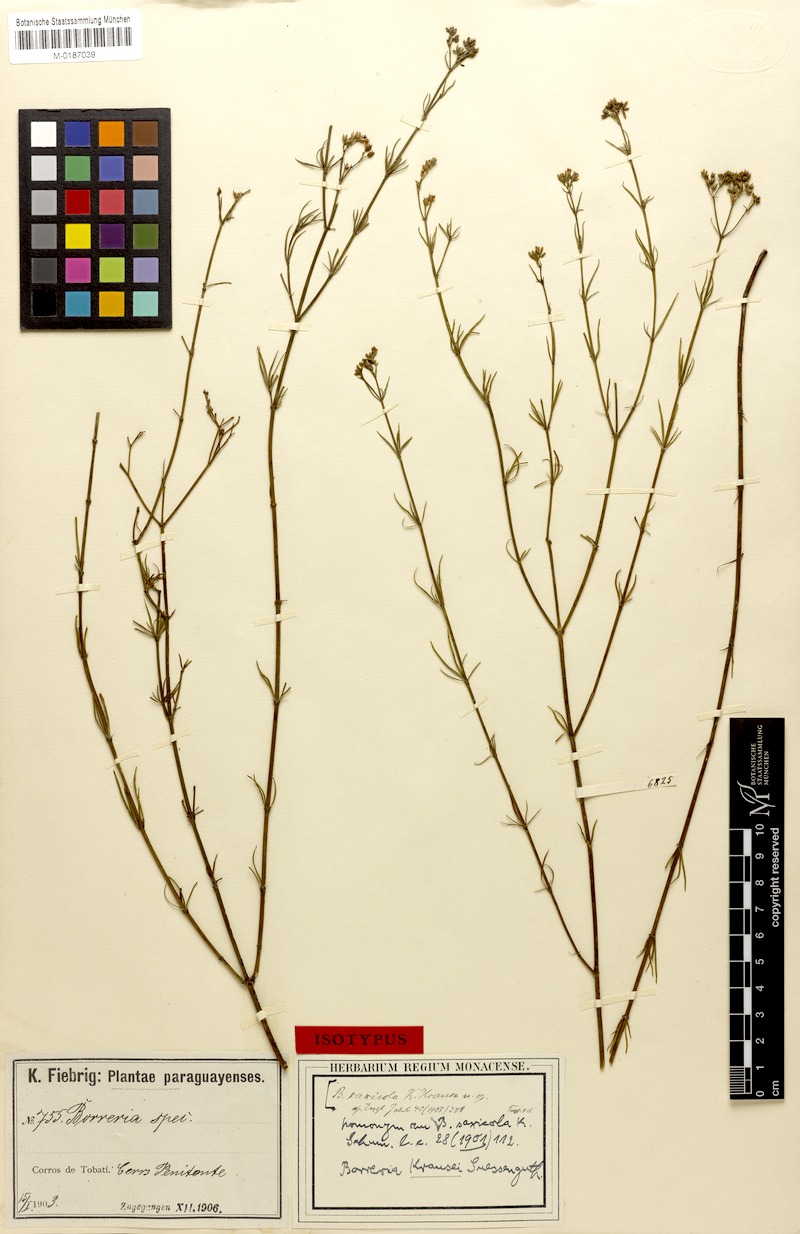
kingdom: Plantae
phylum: Tracheophyta
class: Magnoliopsida
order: Gentianales
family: Rubiaceae
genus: Galianthe
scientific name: Galianthe krausei
